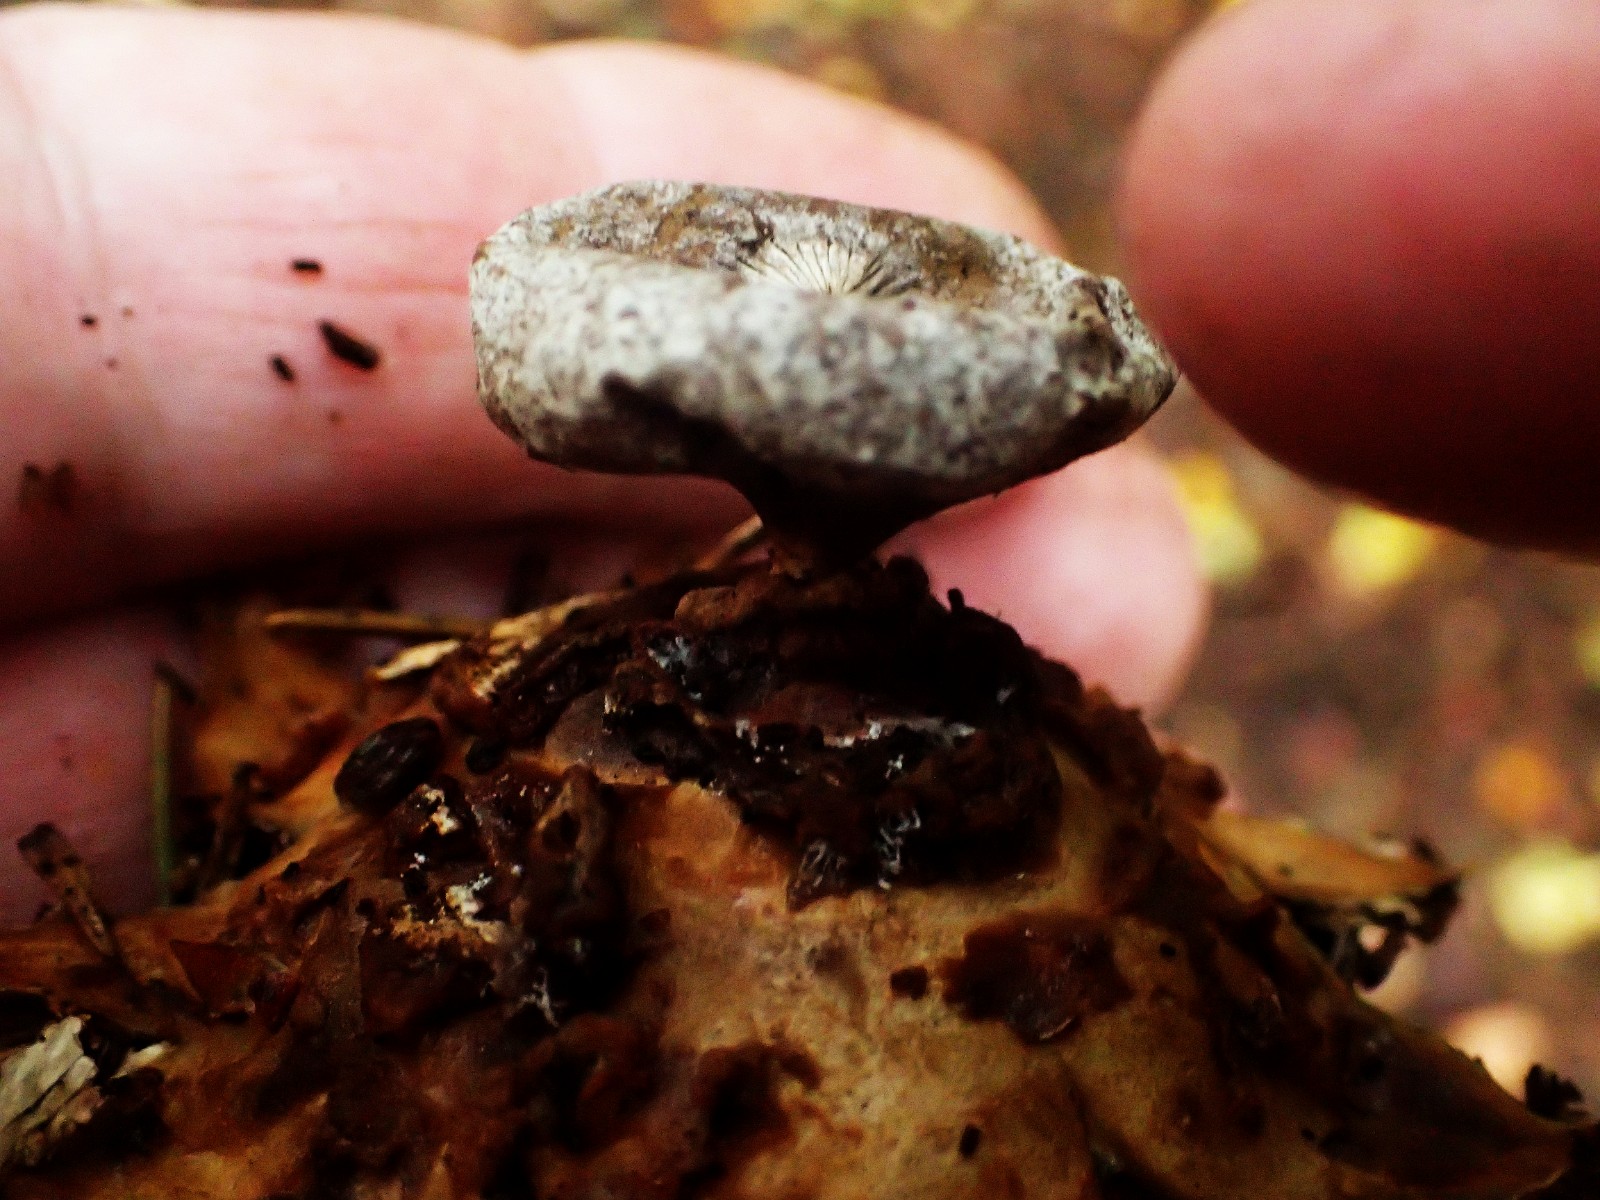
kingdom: Fungi
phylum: Basidiomycota
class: Agaricomycetes
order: Geastrales
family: Geastraceae
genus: Geastrum
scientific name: Geastrum
